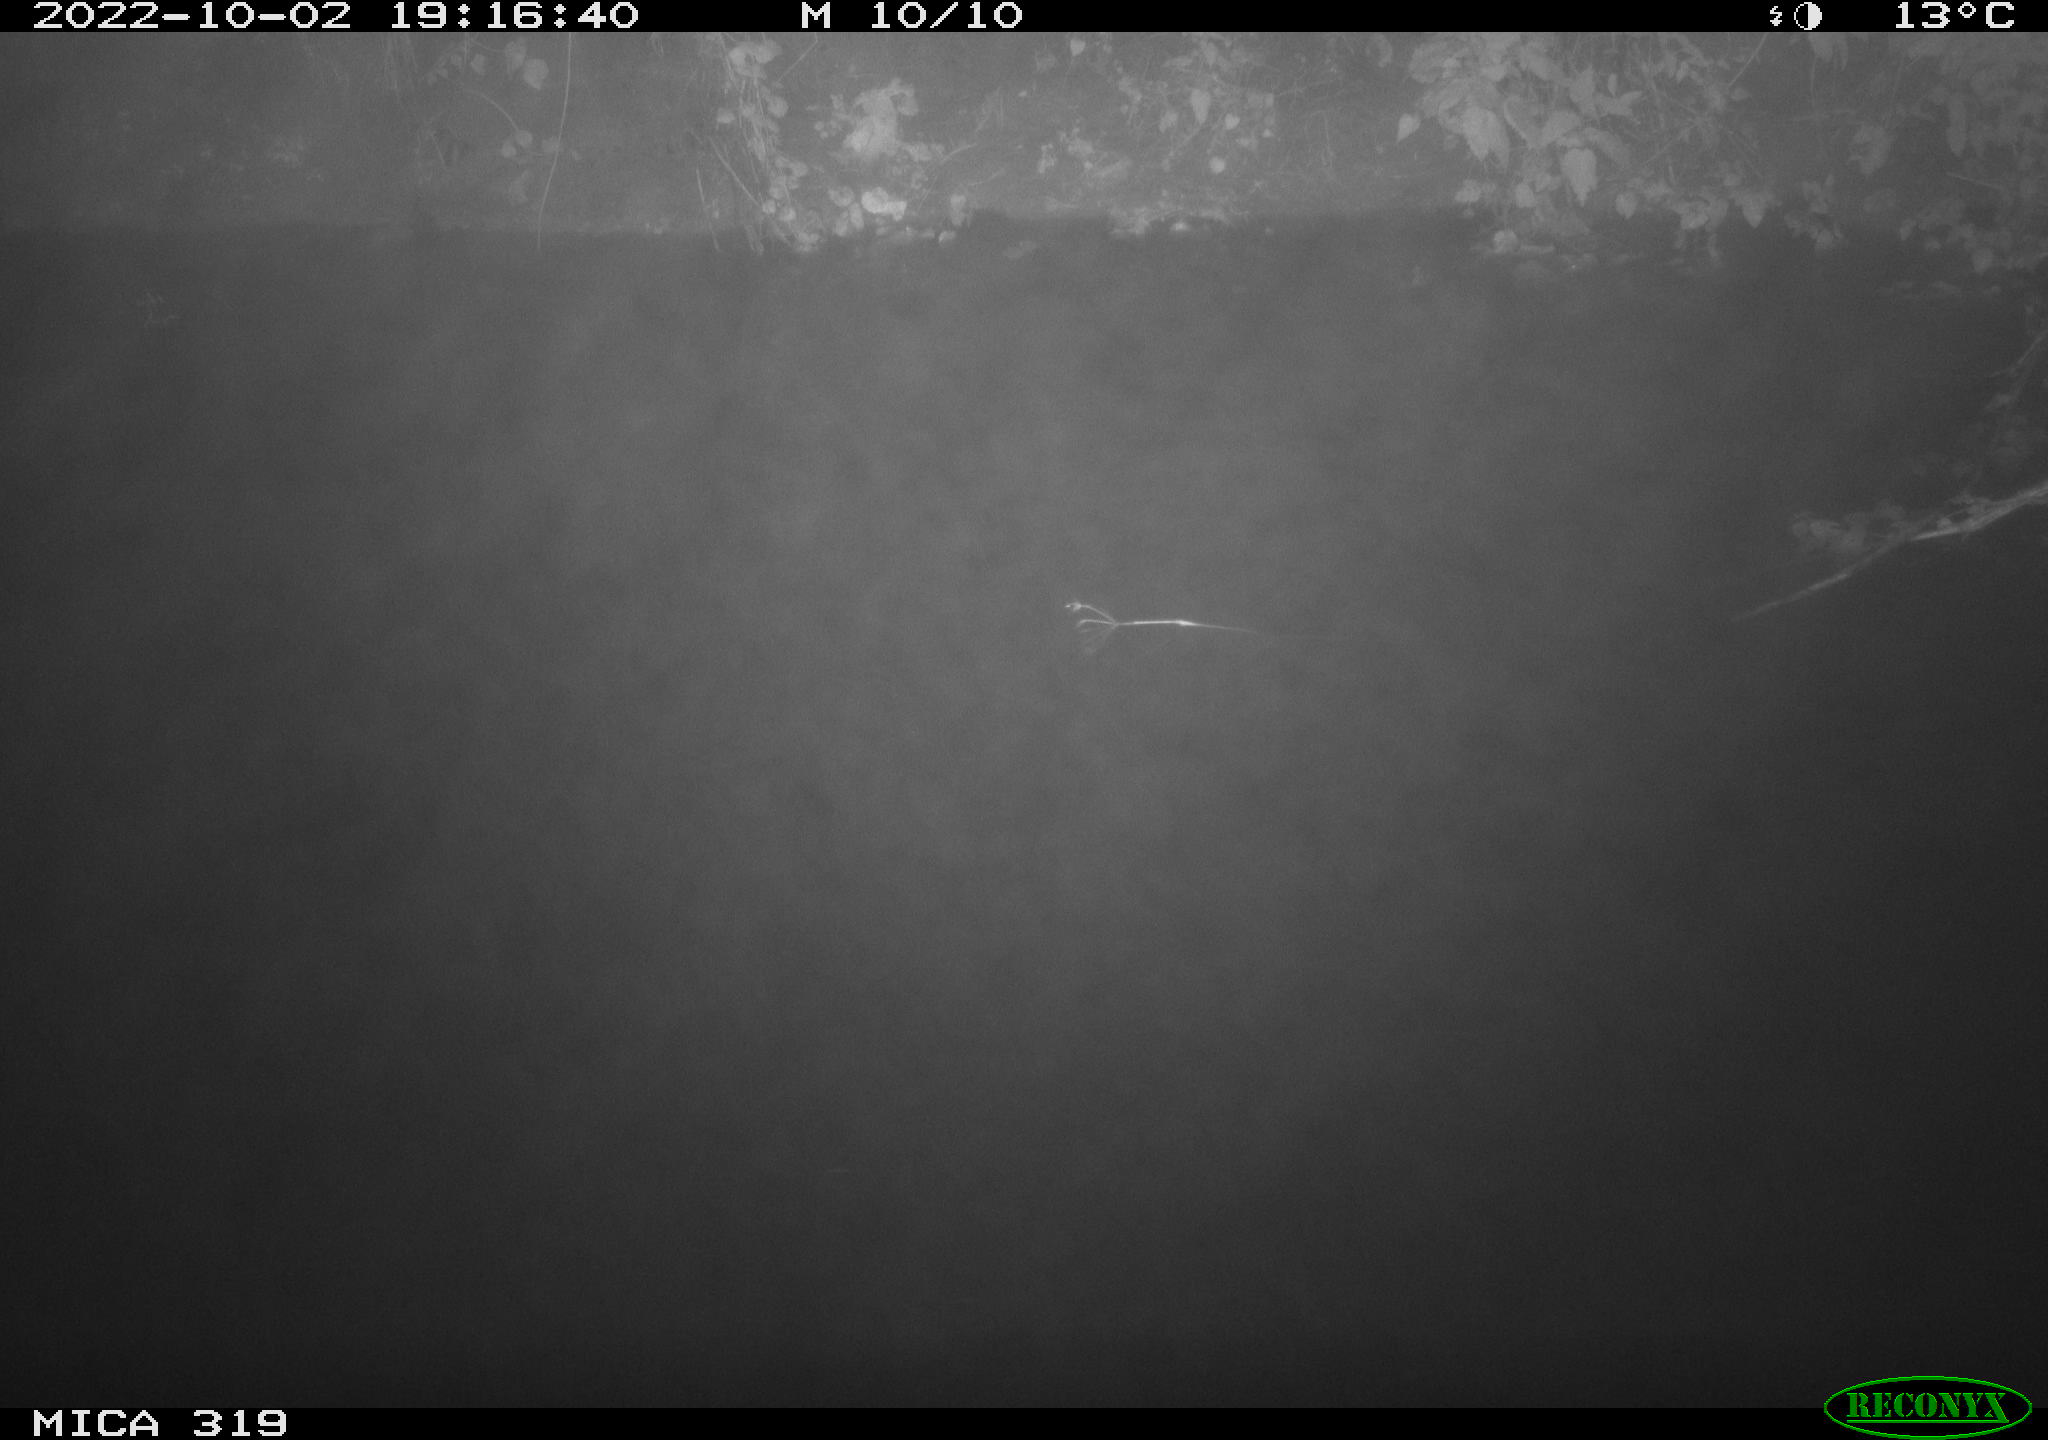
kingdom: Animalia
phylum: Chordata
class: Aves
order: Anseriformes
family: Anatidae
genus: Anas
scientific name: Anas
